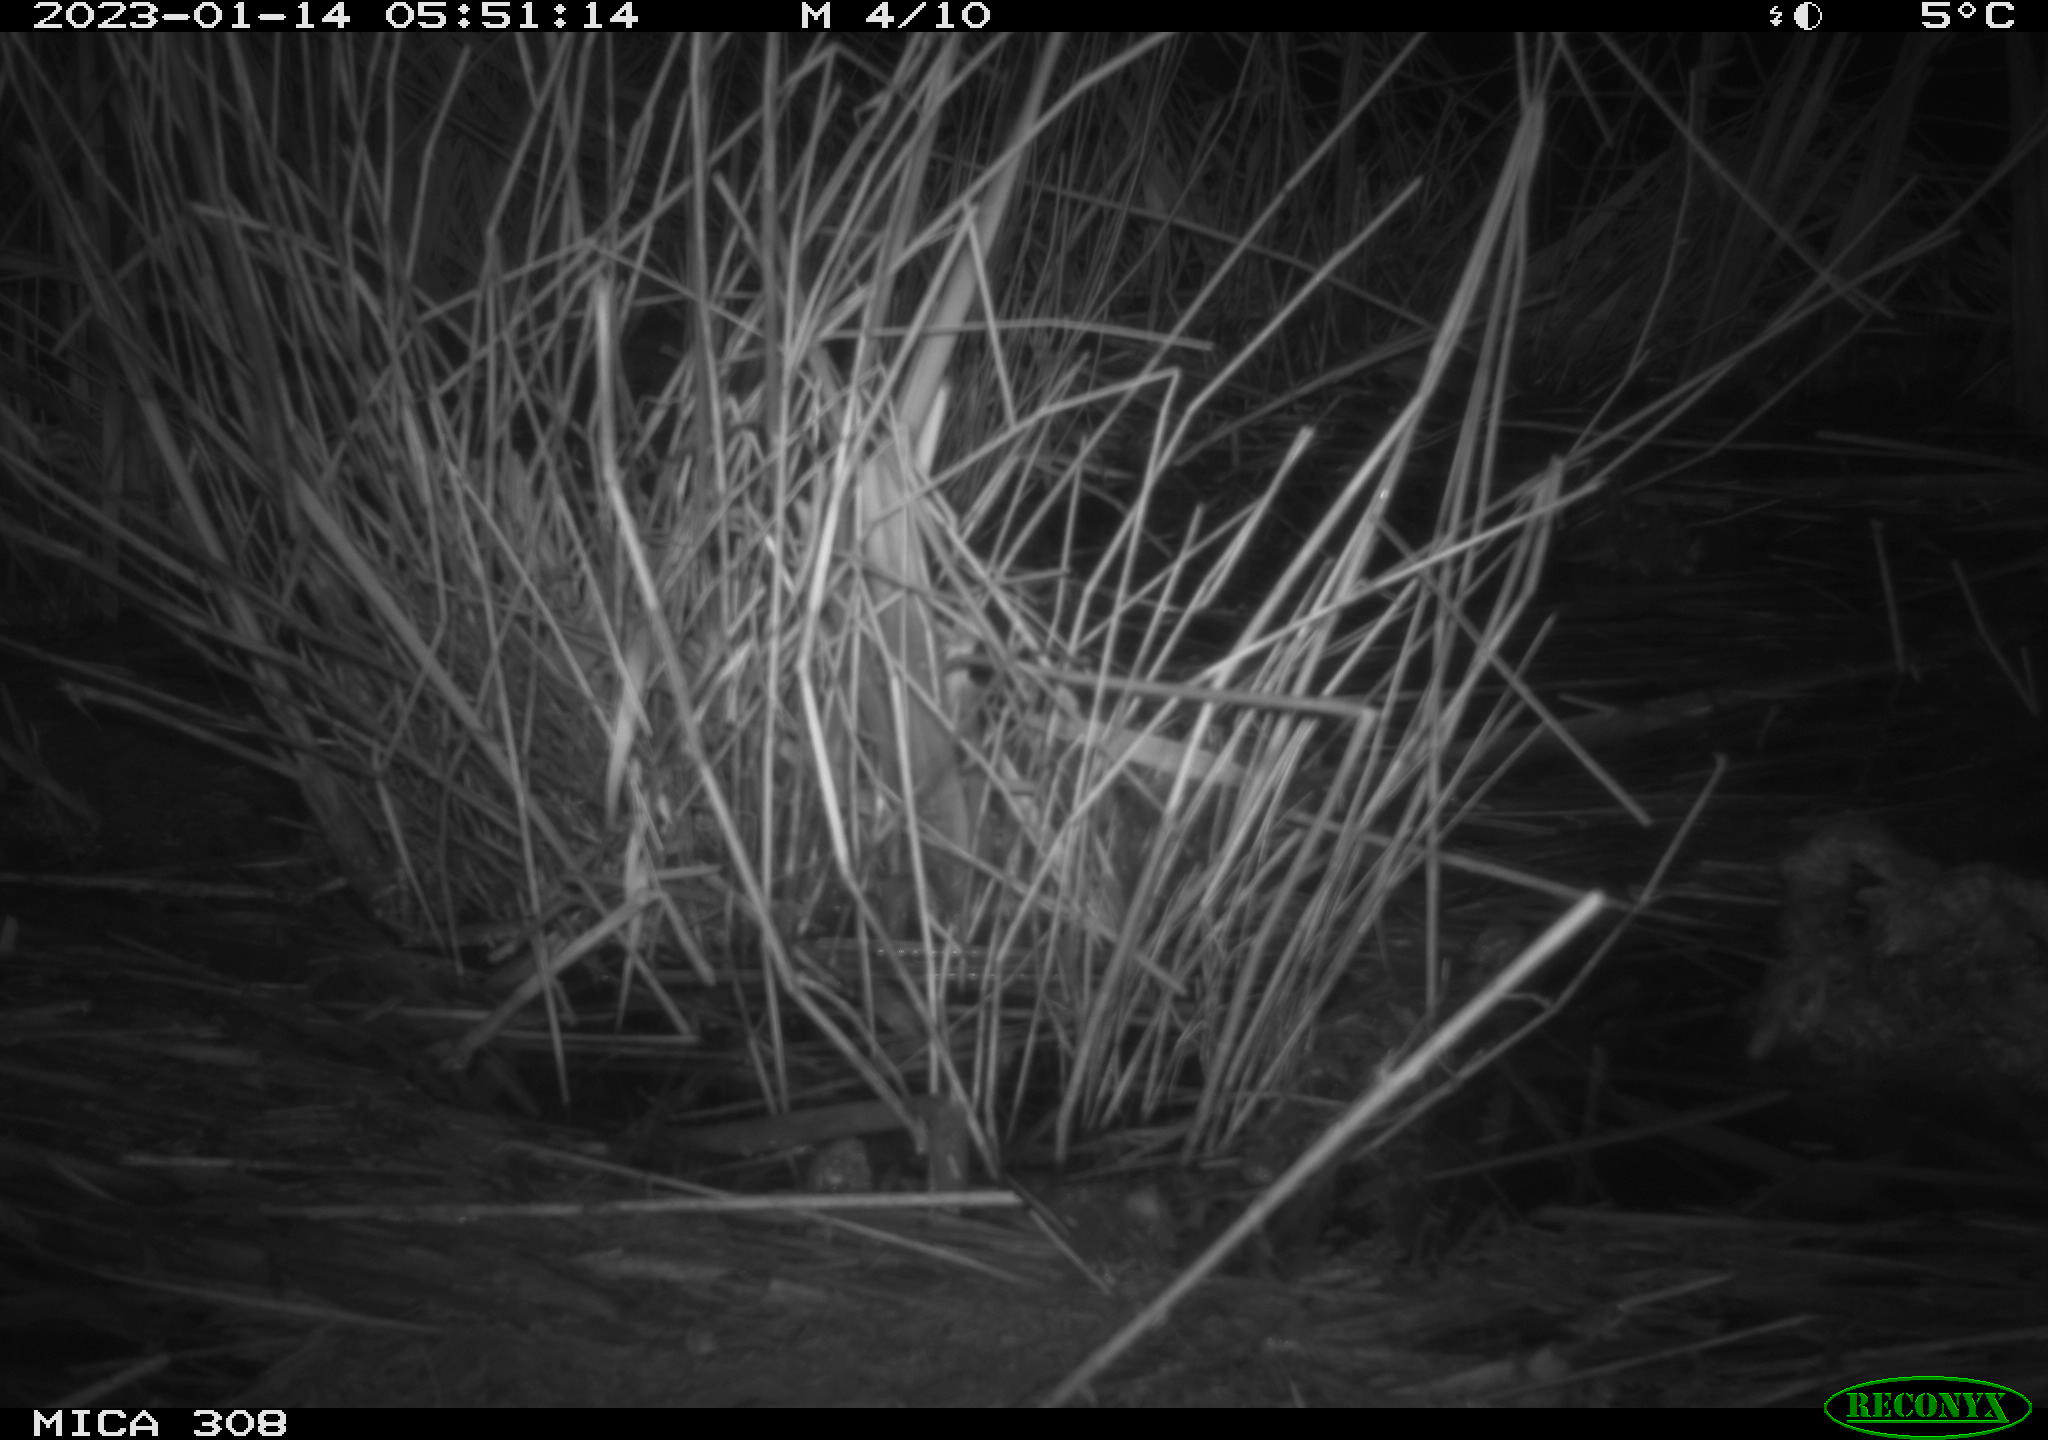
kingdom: Animalia
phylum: Chordata
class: Mammalia
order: Rodentia
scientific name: Rodentia
